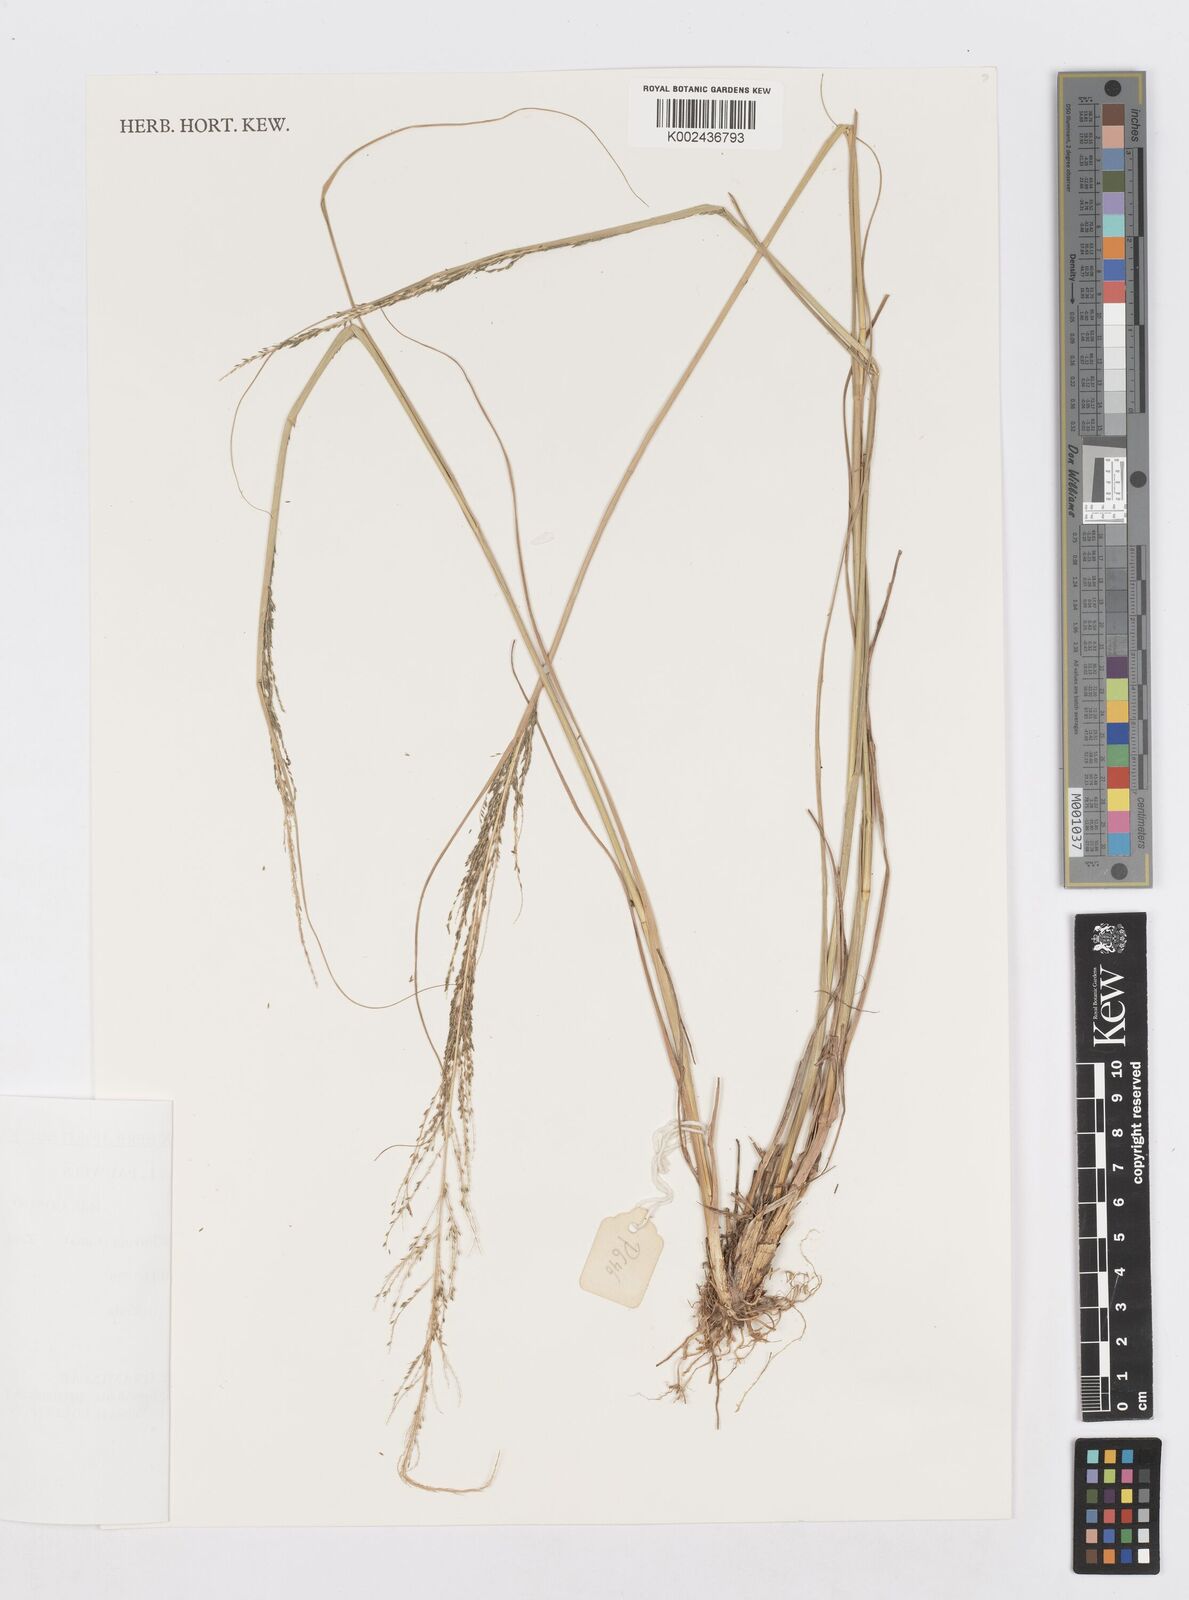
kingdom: Plantae
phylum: Tracheophyta
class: Liliopsida
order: Poales
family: Poaceae
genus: Sporobolus
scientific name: Sporobolus pyramidalis
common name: West indian dropseed
